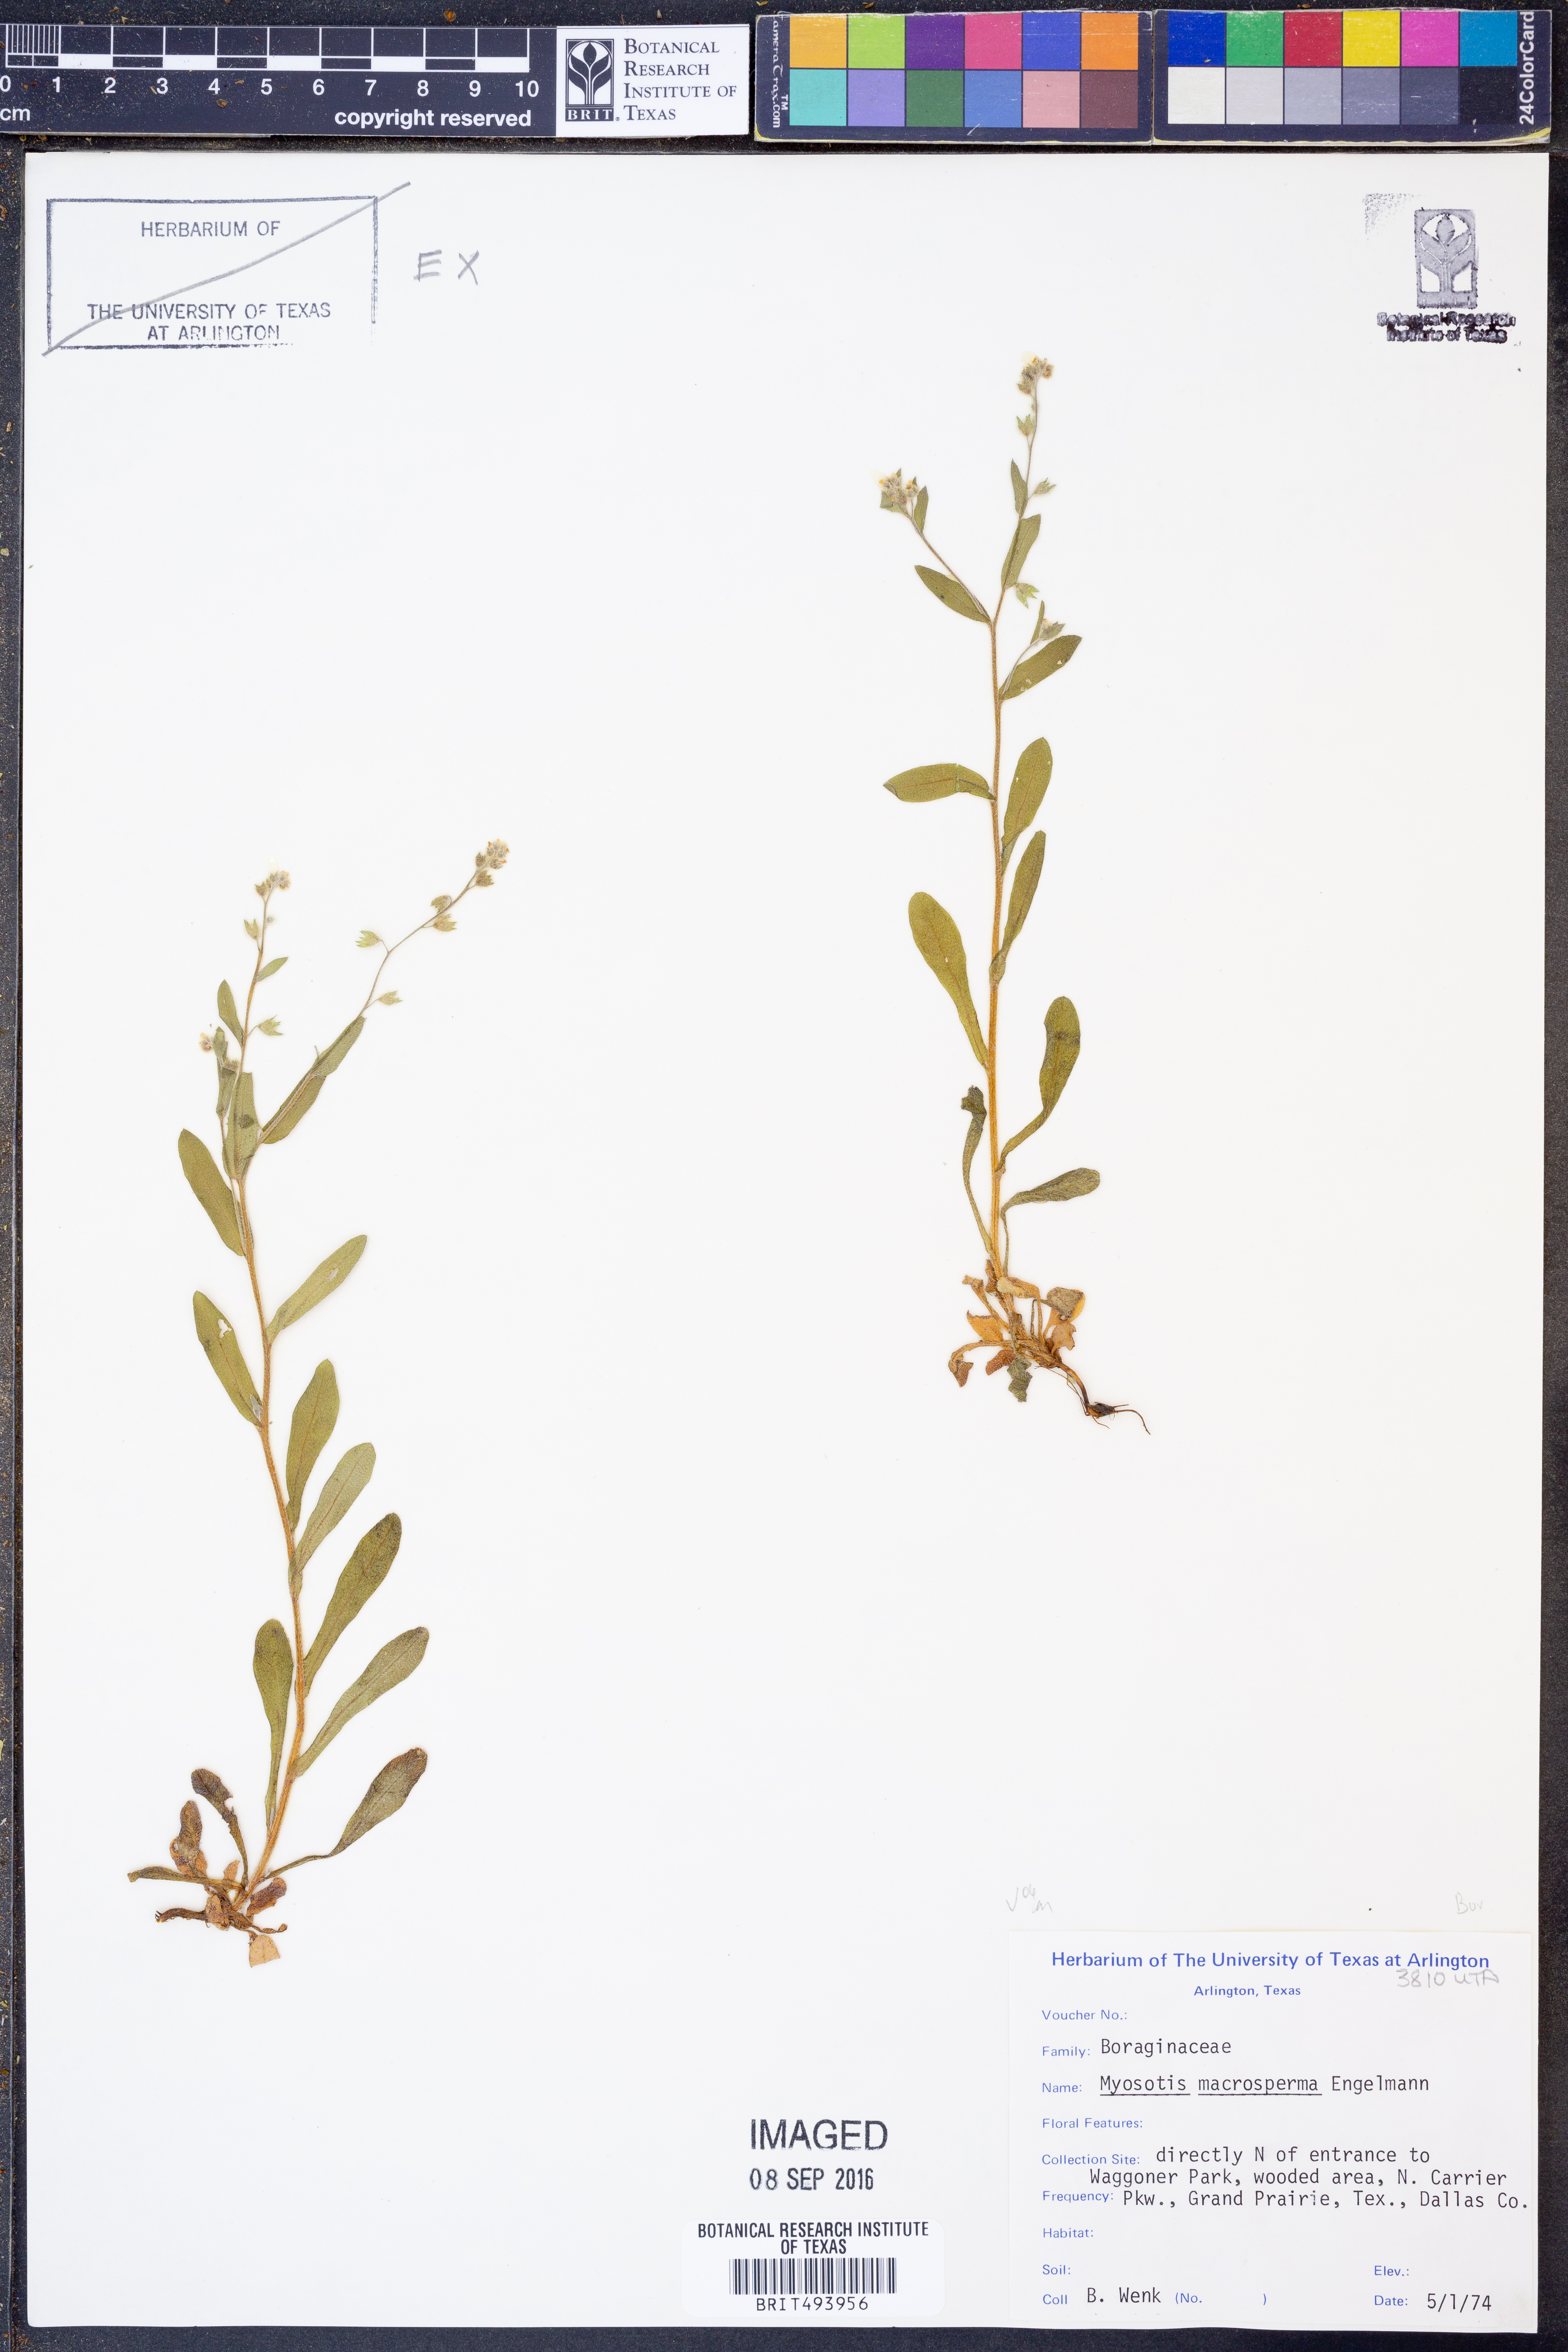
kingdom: Plantae
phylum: Tracheophyta
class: Magnoliopsida
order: Boraginales
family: Boraginaceae
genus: Myosotis
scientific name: Myosotis macrosperma
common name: Large-seed forget-me-not
